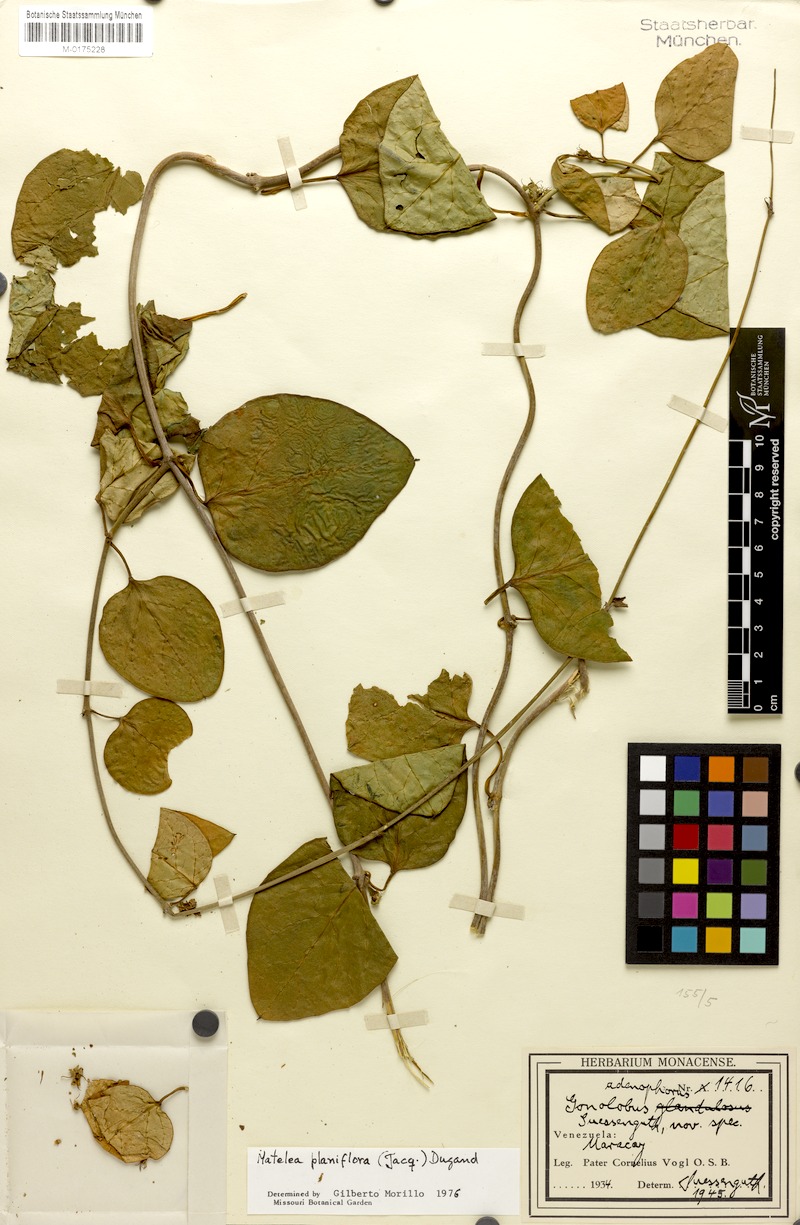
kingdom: Plantae
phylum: Tracheophyta
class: Magnoliopsida
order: Gentianales
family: Apocynaceae
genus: Atrostemma
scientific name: Atrostemma planiflorum
